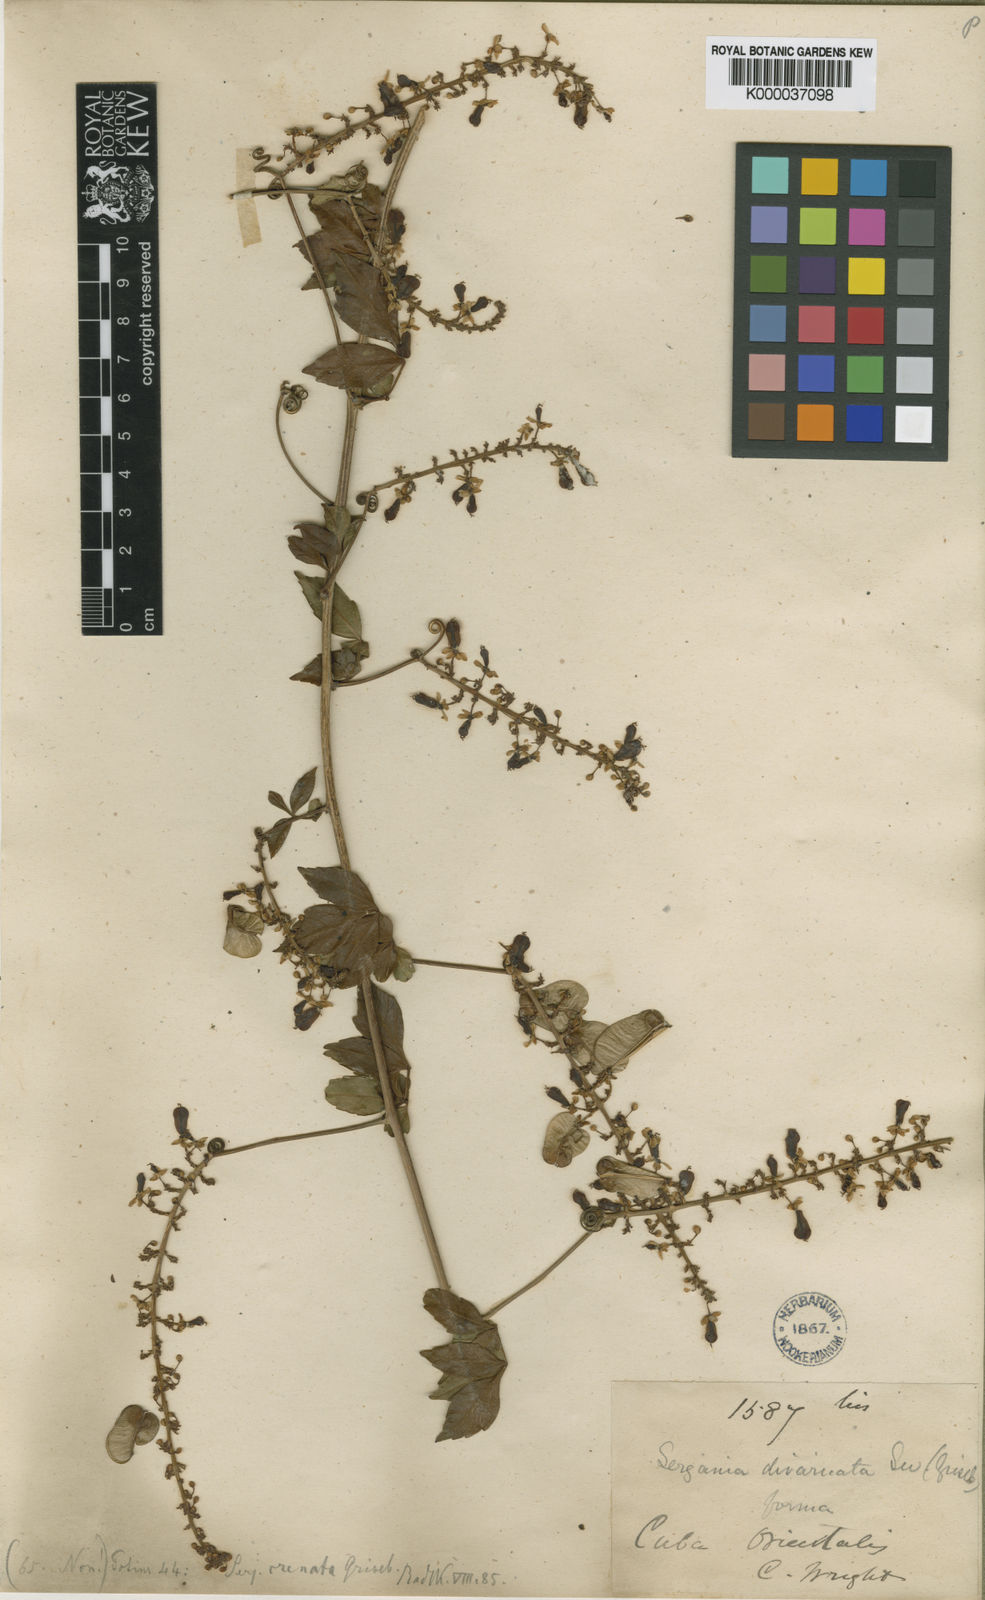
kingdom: Plantae
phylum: Tracheophyta
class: Magnoliopsida
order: Sapindales
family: Sapindaceae
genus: Serjania
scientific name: Serjania crenata
